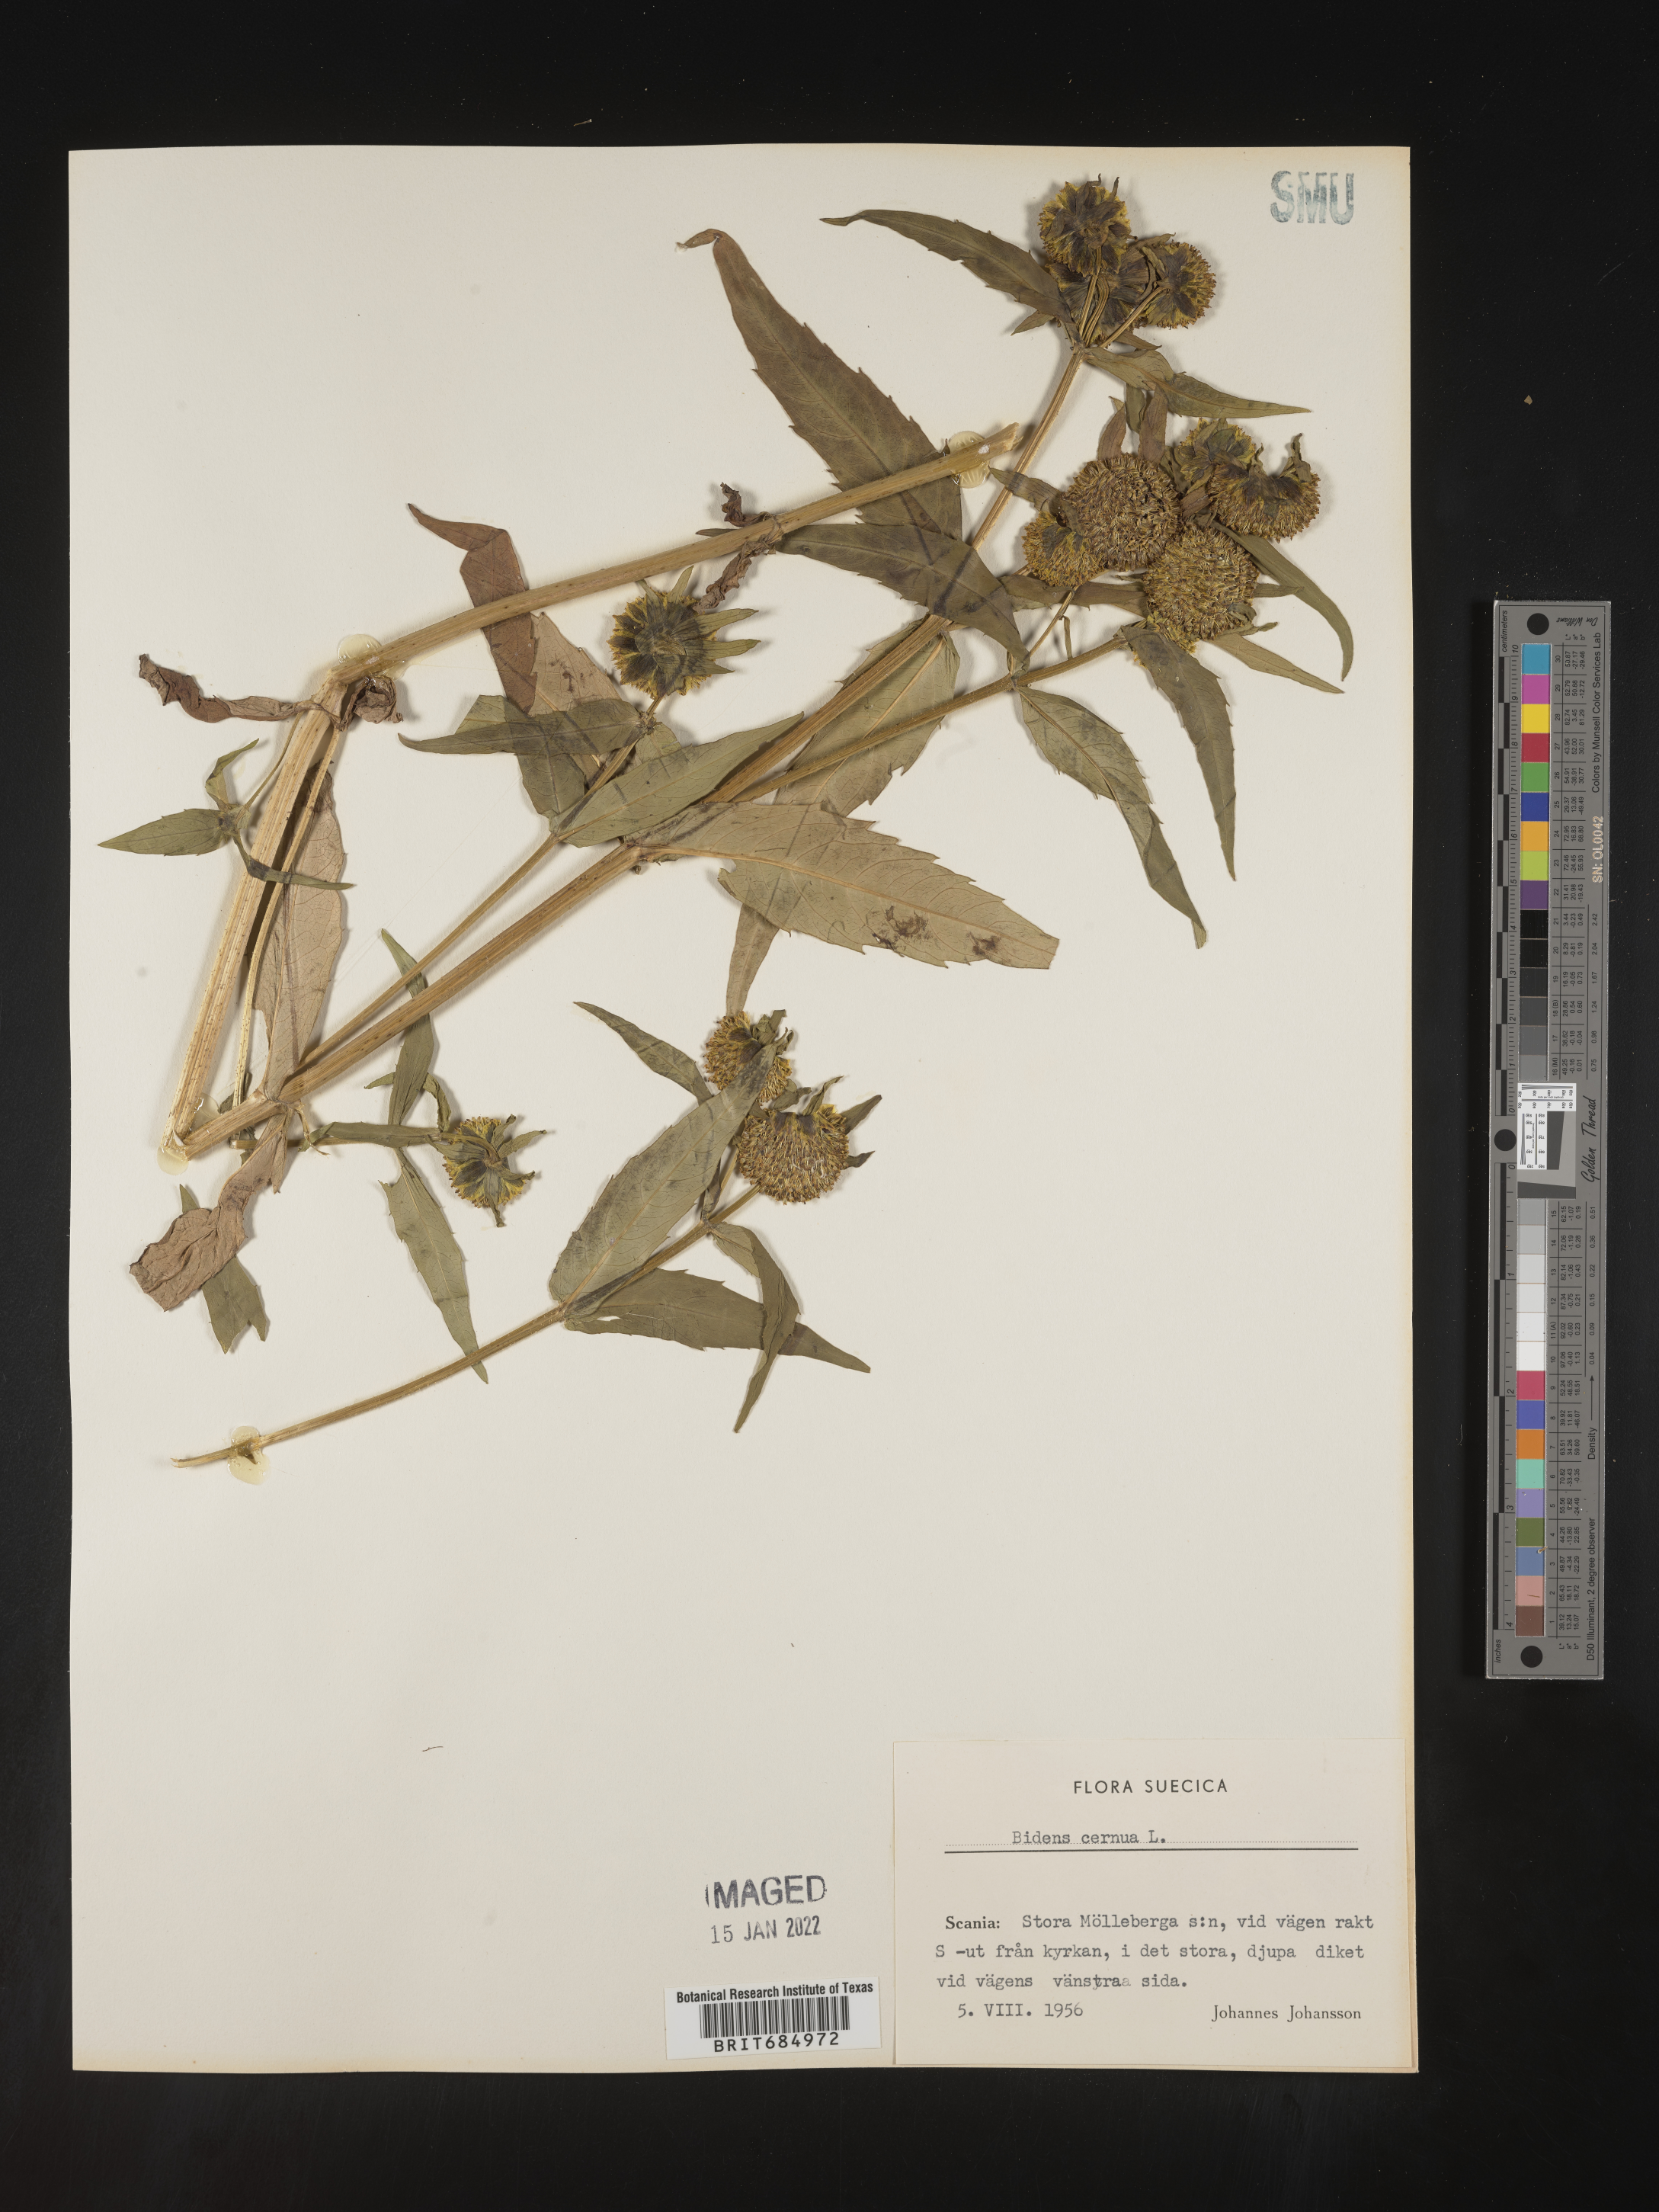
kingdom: Plantae
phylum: Tracheophyta
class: Magnoliopsida
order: Asterales
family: Asteraceae
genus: Bidens
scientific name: Bidens
